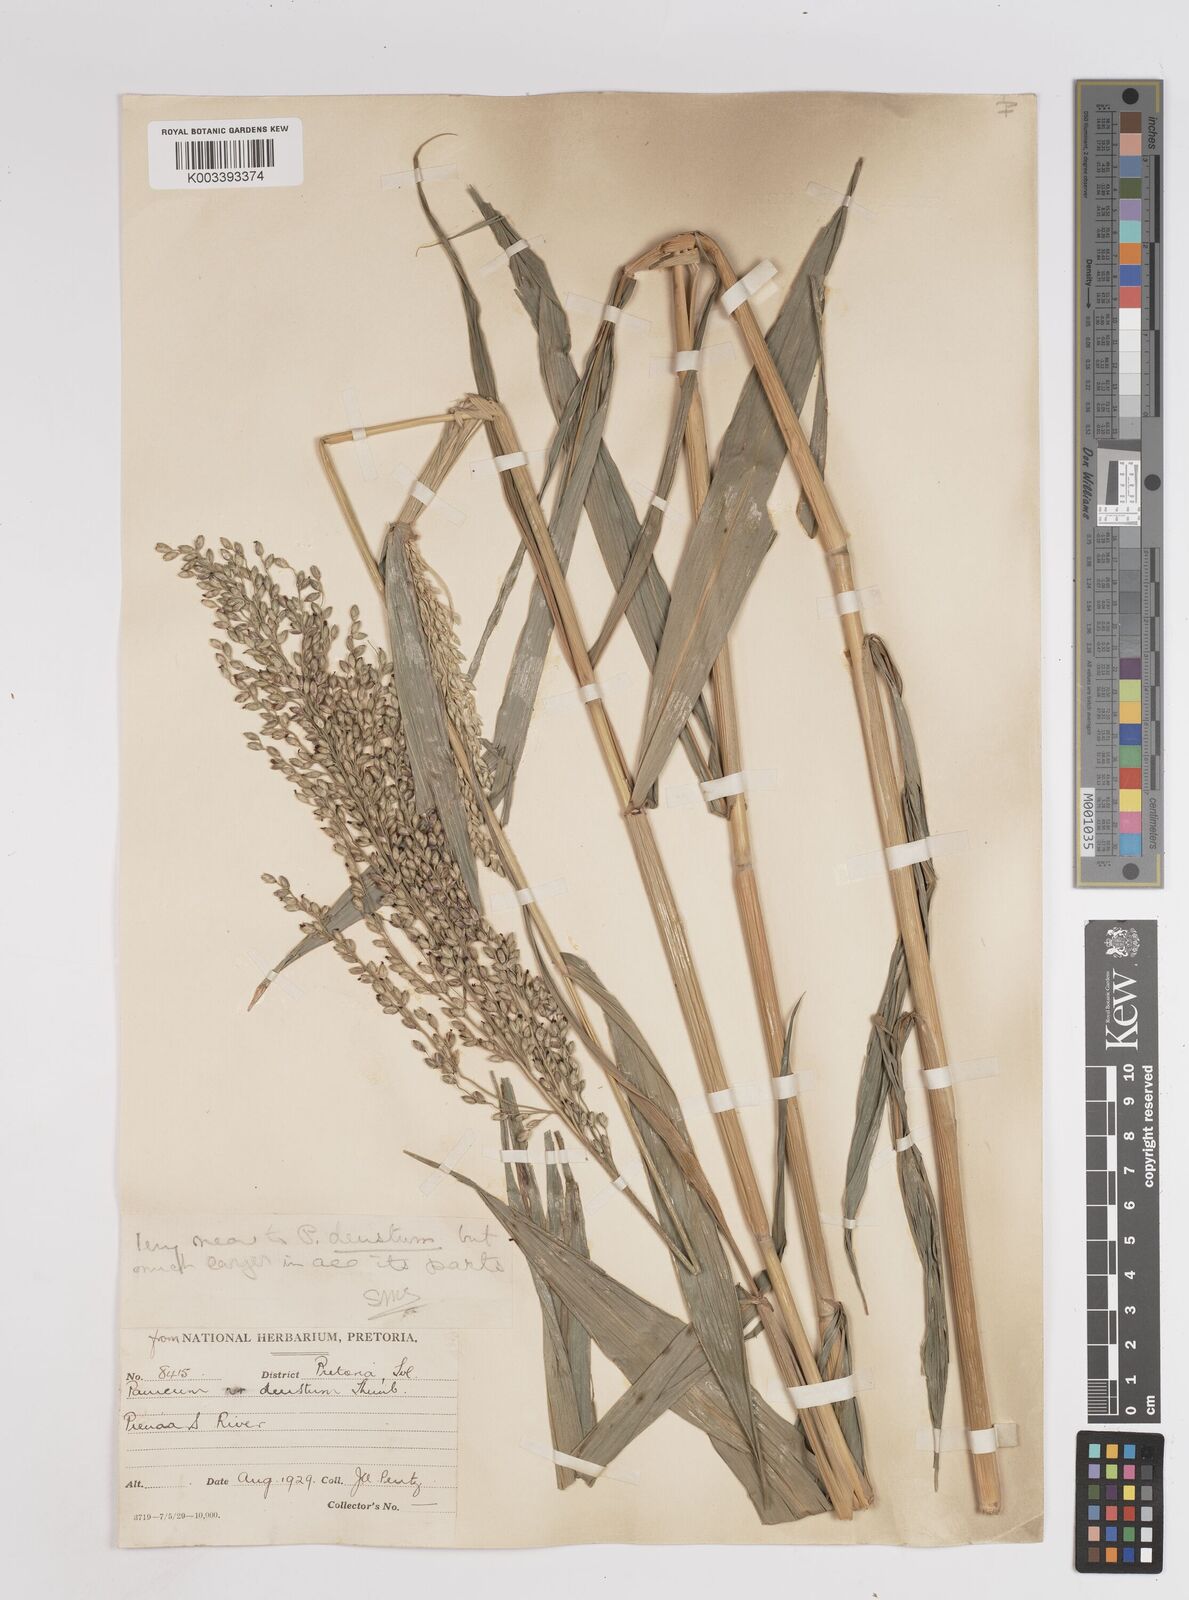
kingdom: Plantae
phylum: Tracheophyta
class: Liliopsida
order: Poales
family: Poaceae
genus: Panicum
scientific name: Panicum deustum
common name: Reed panicum
